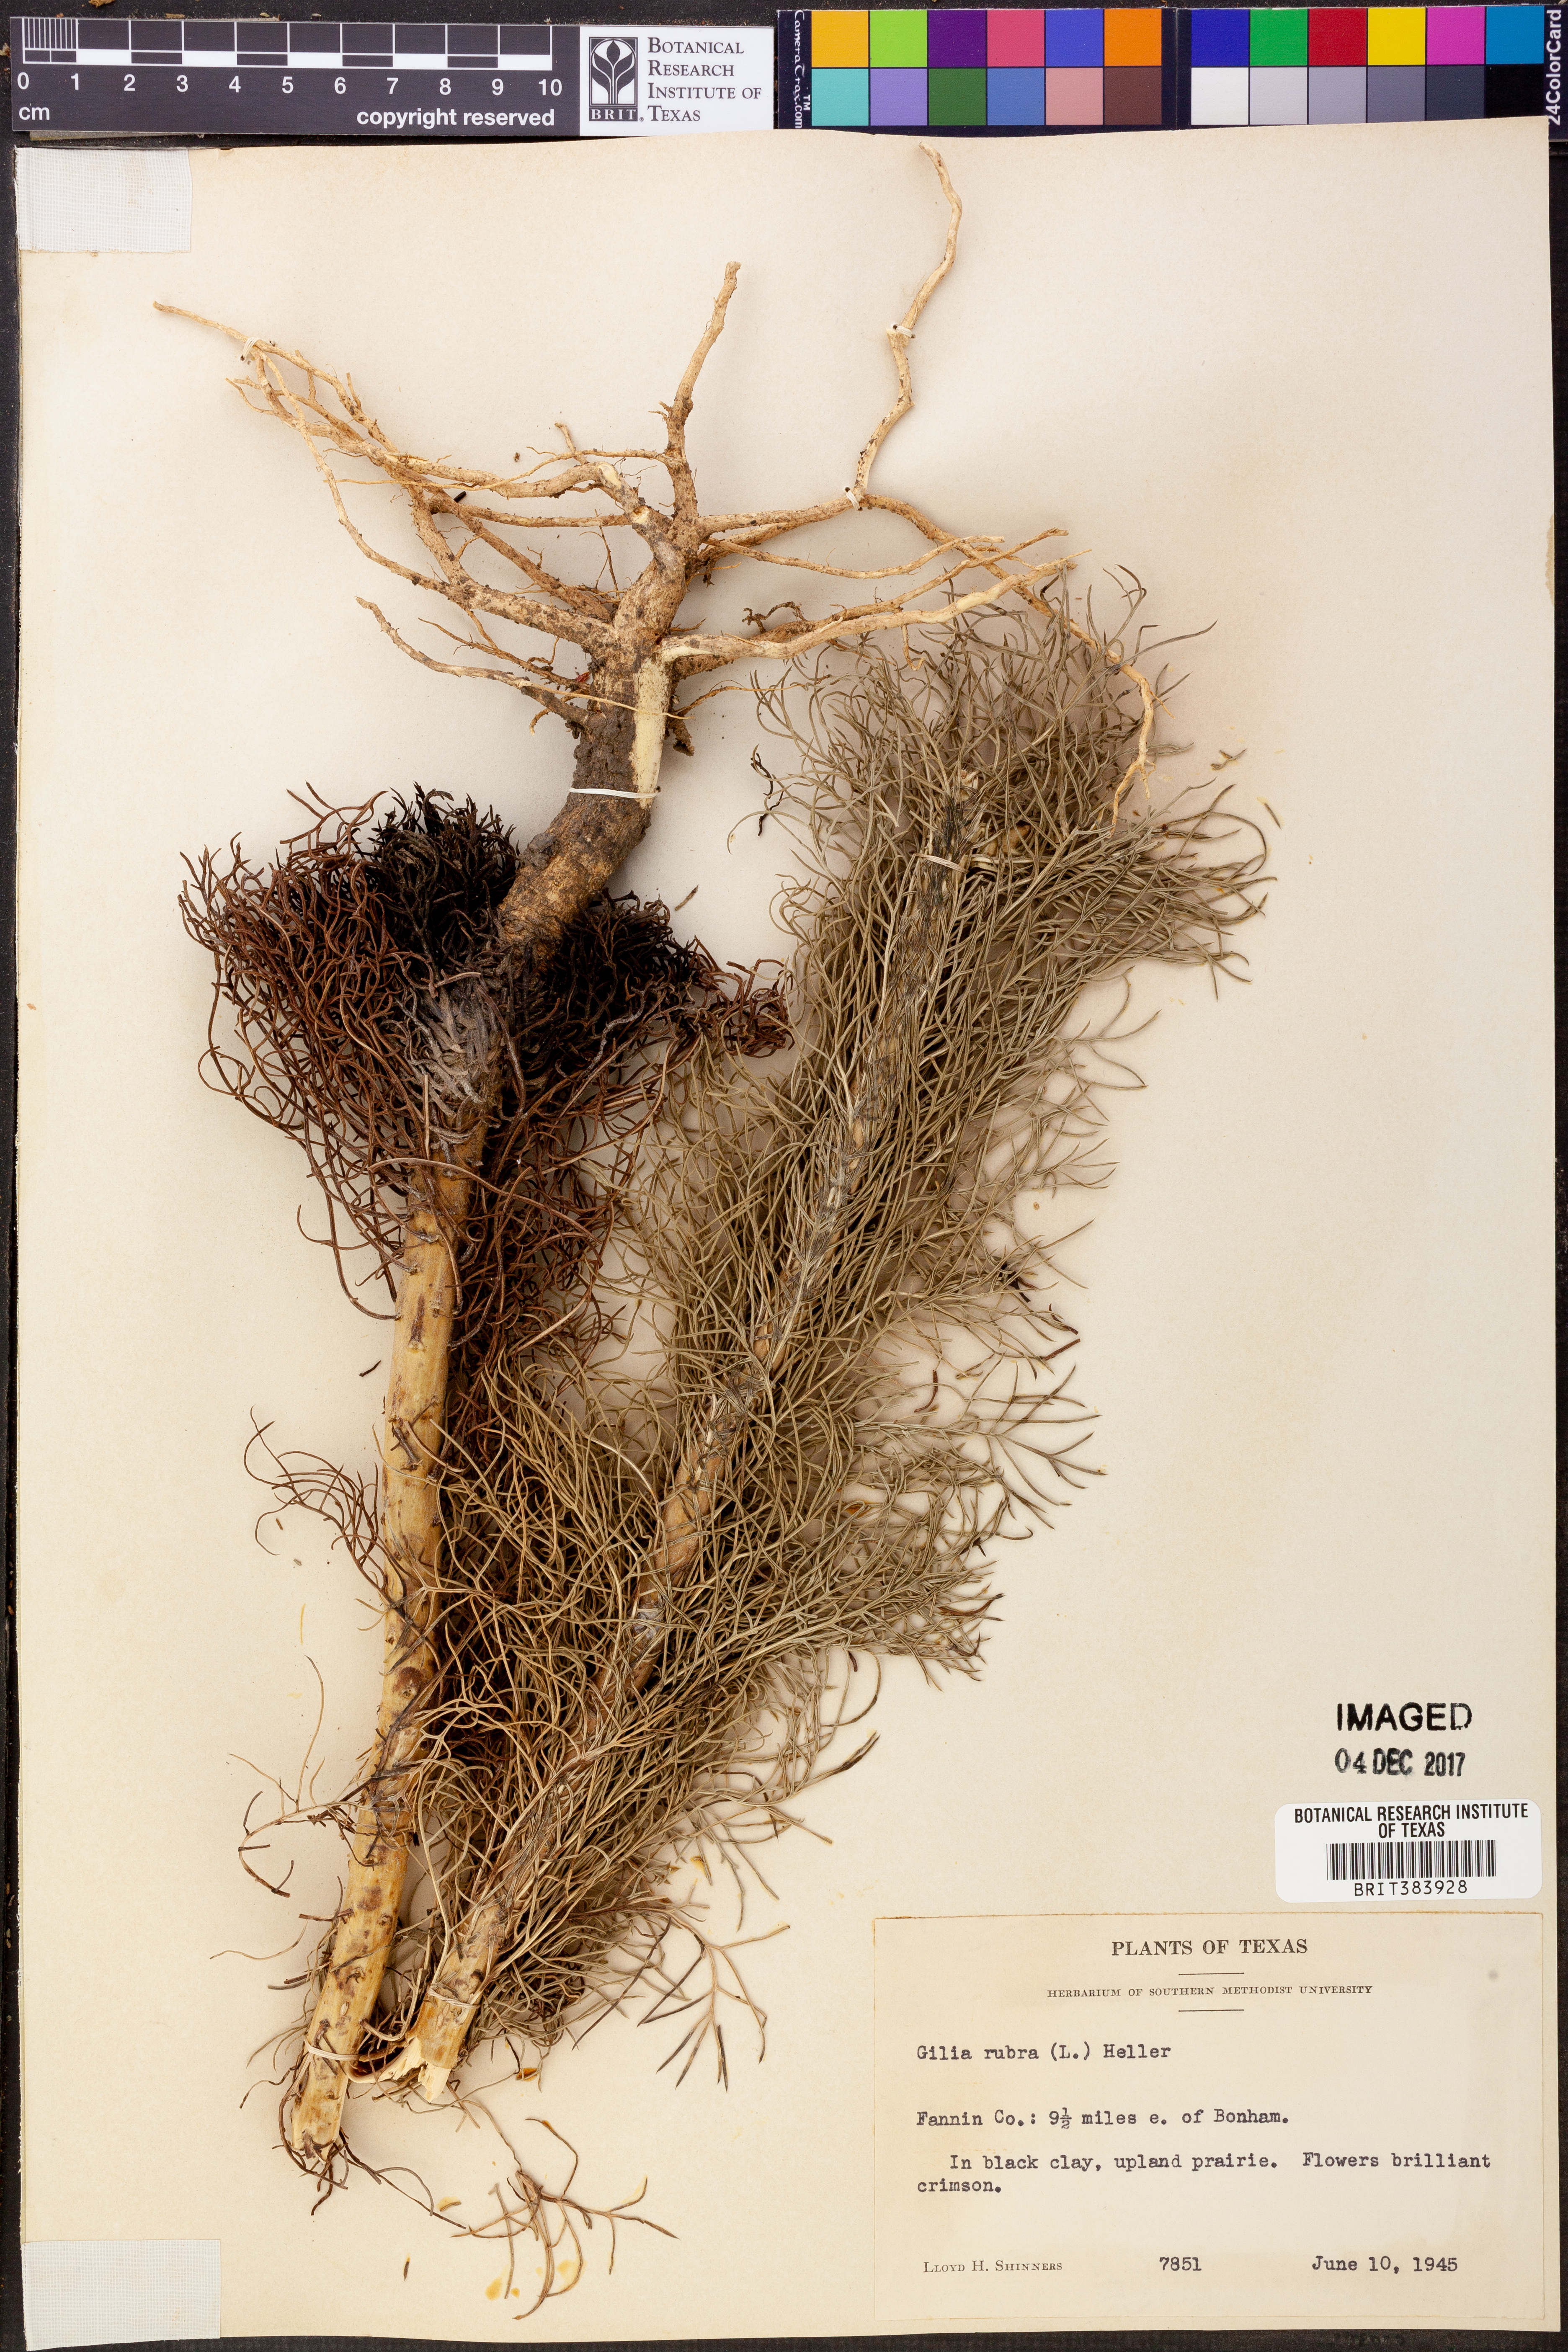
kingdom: Plantae
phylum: Tracheophyta
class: Magnoliopsida
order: Ericales
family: Polemoniaceae
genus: Ipomopsis
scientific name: Ipomopsis rubra
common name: Skyrocket
